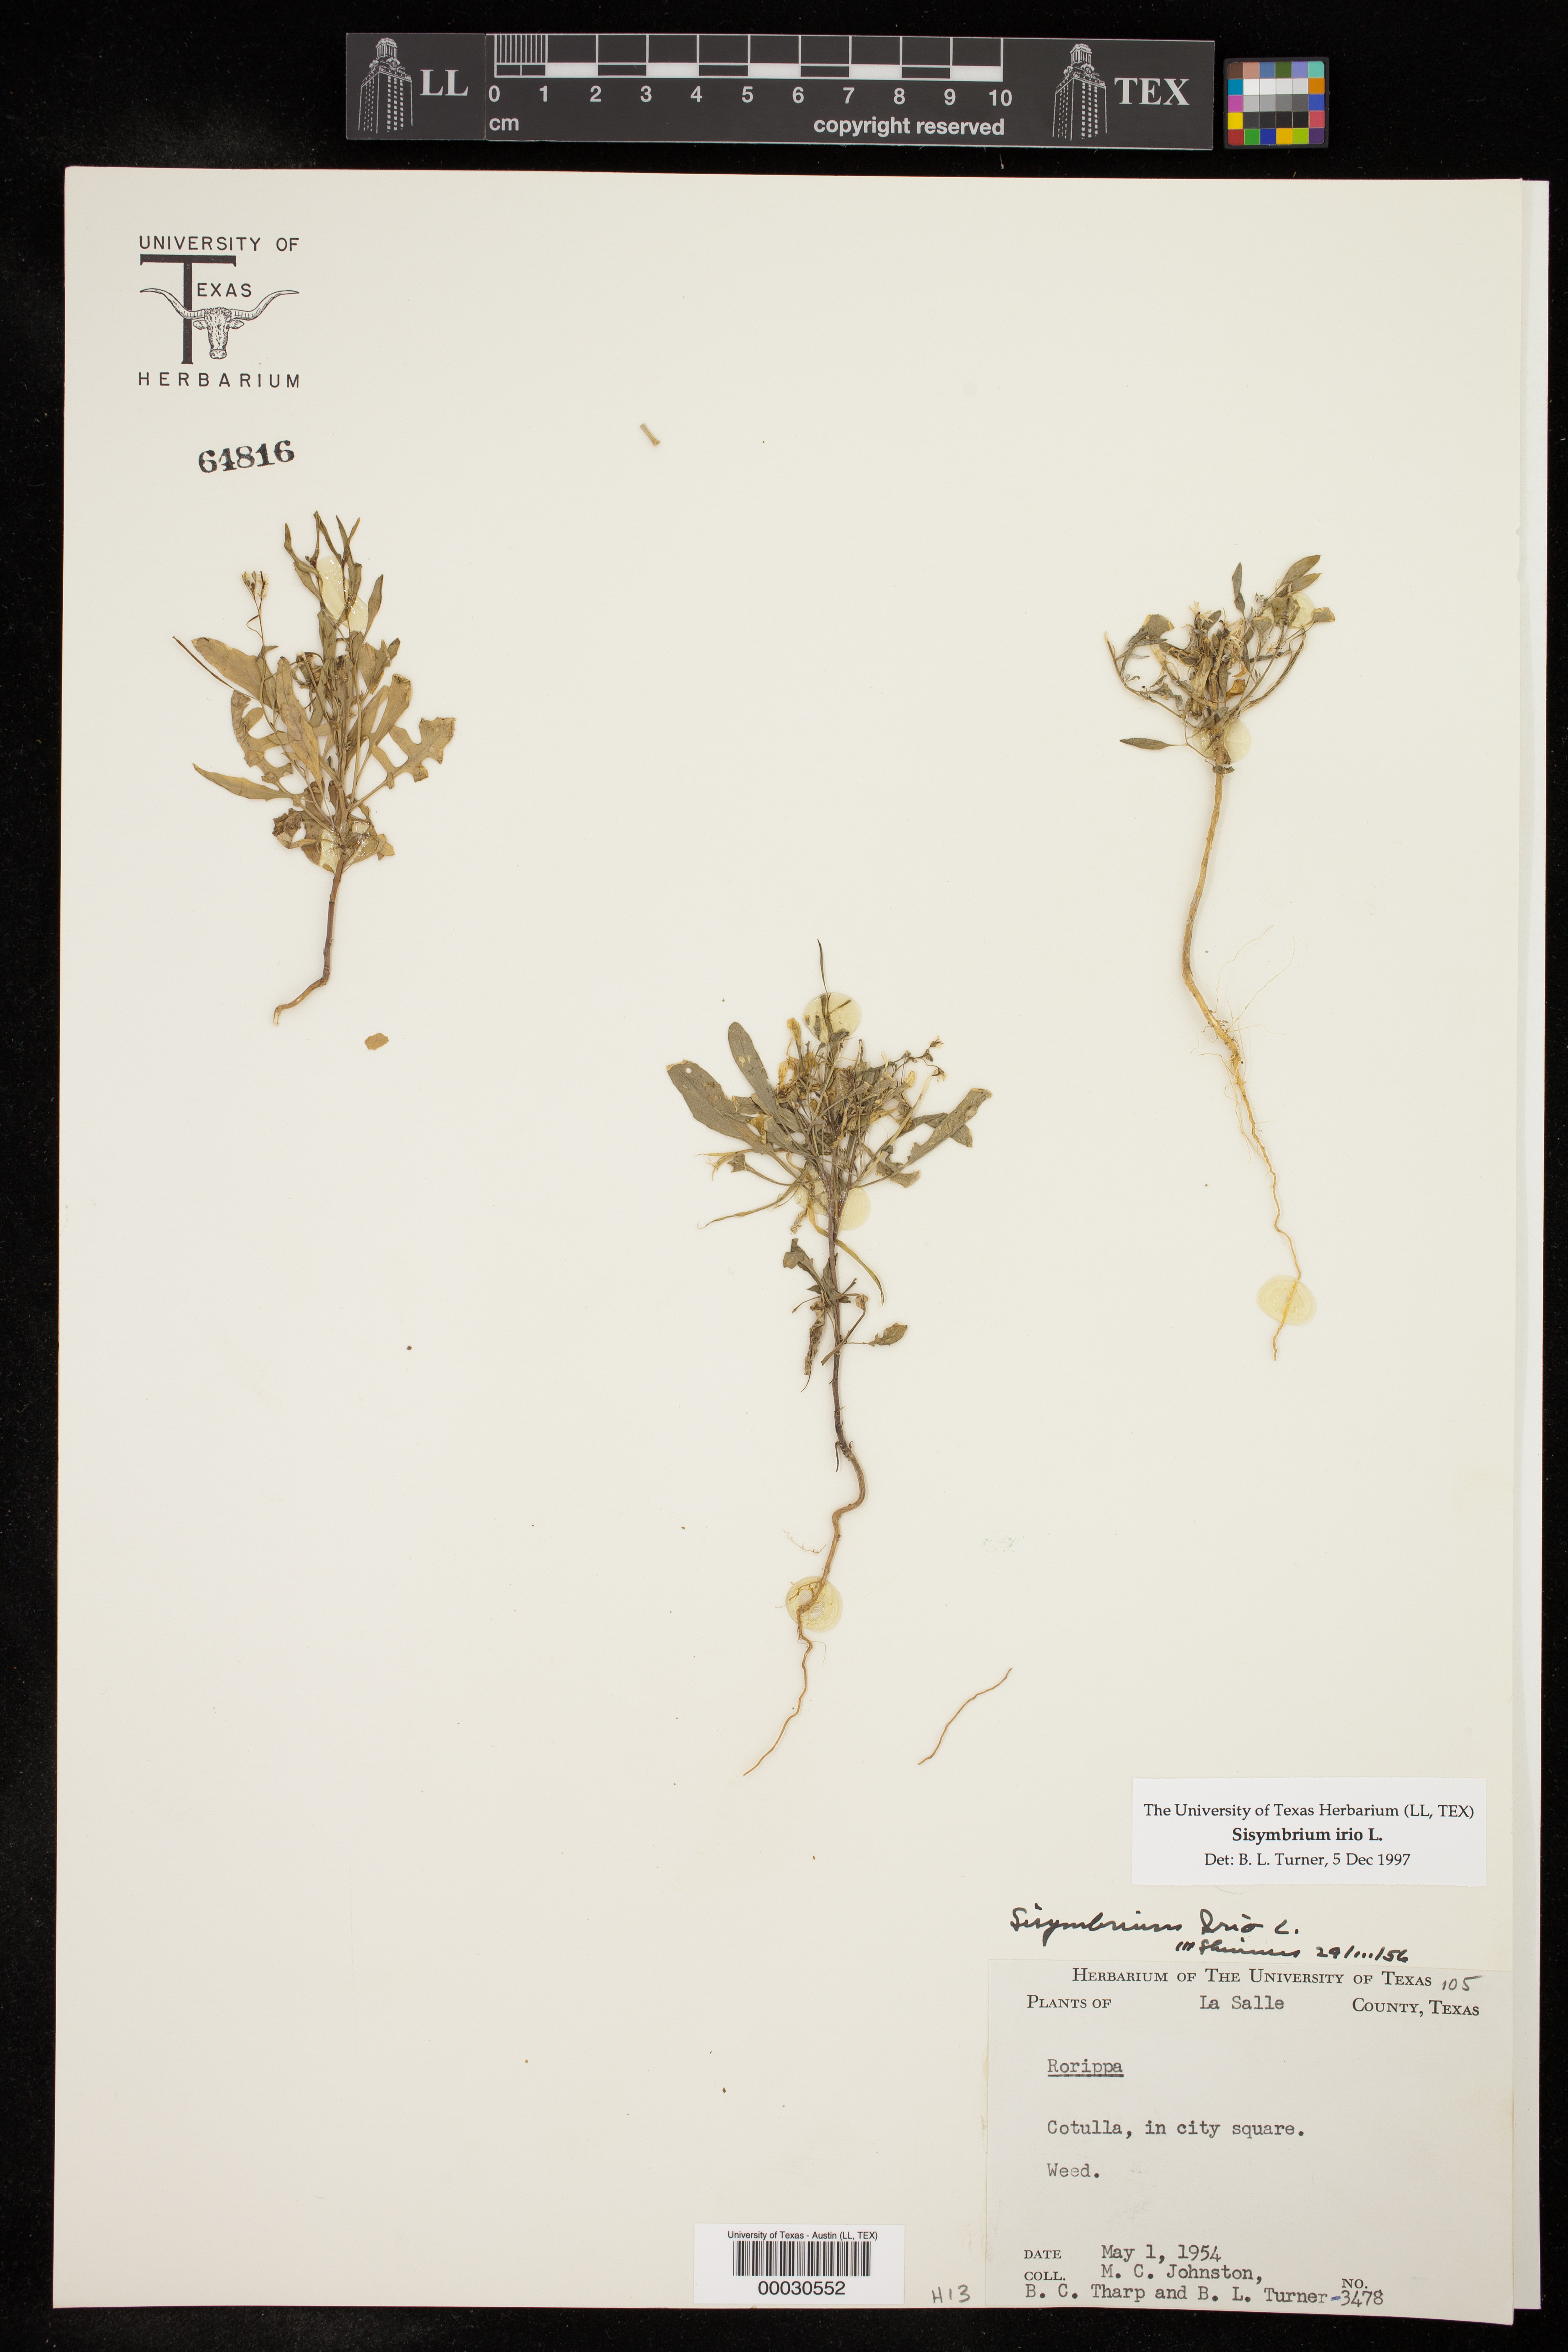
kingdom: Plantae
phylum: Tracheophyta
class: Magnoliopsida
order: Brassicales
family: Brassicaceae
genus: Sisymbrium
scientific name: Sisymbrium irio
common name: London rocket
